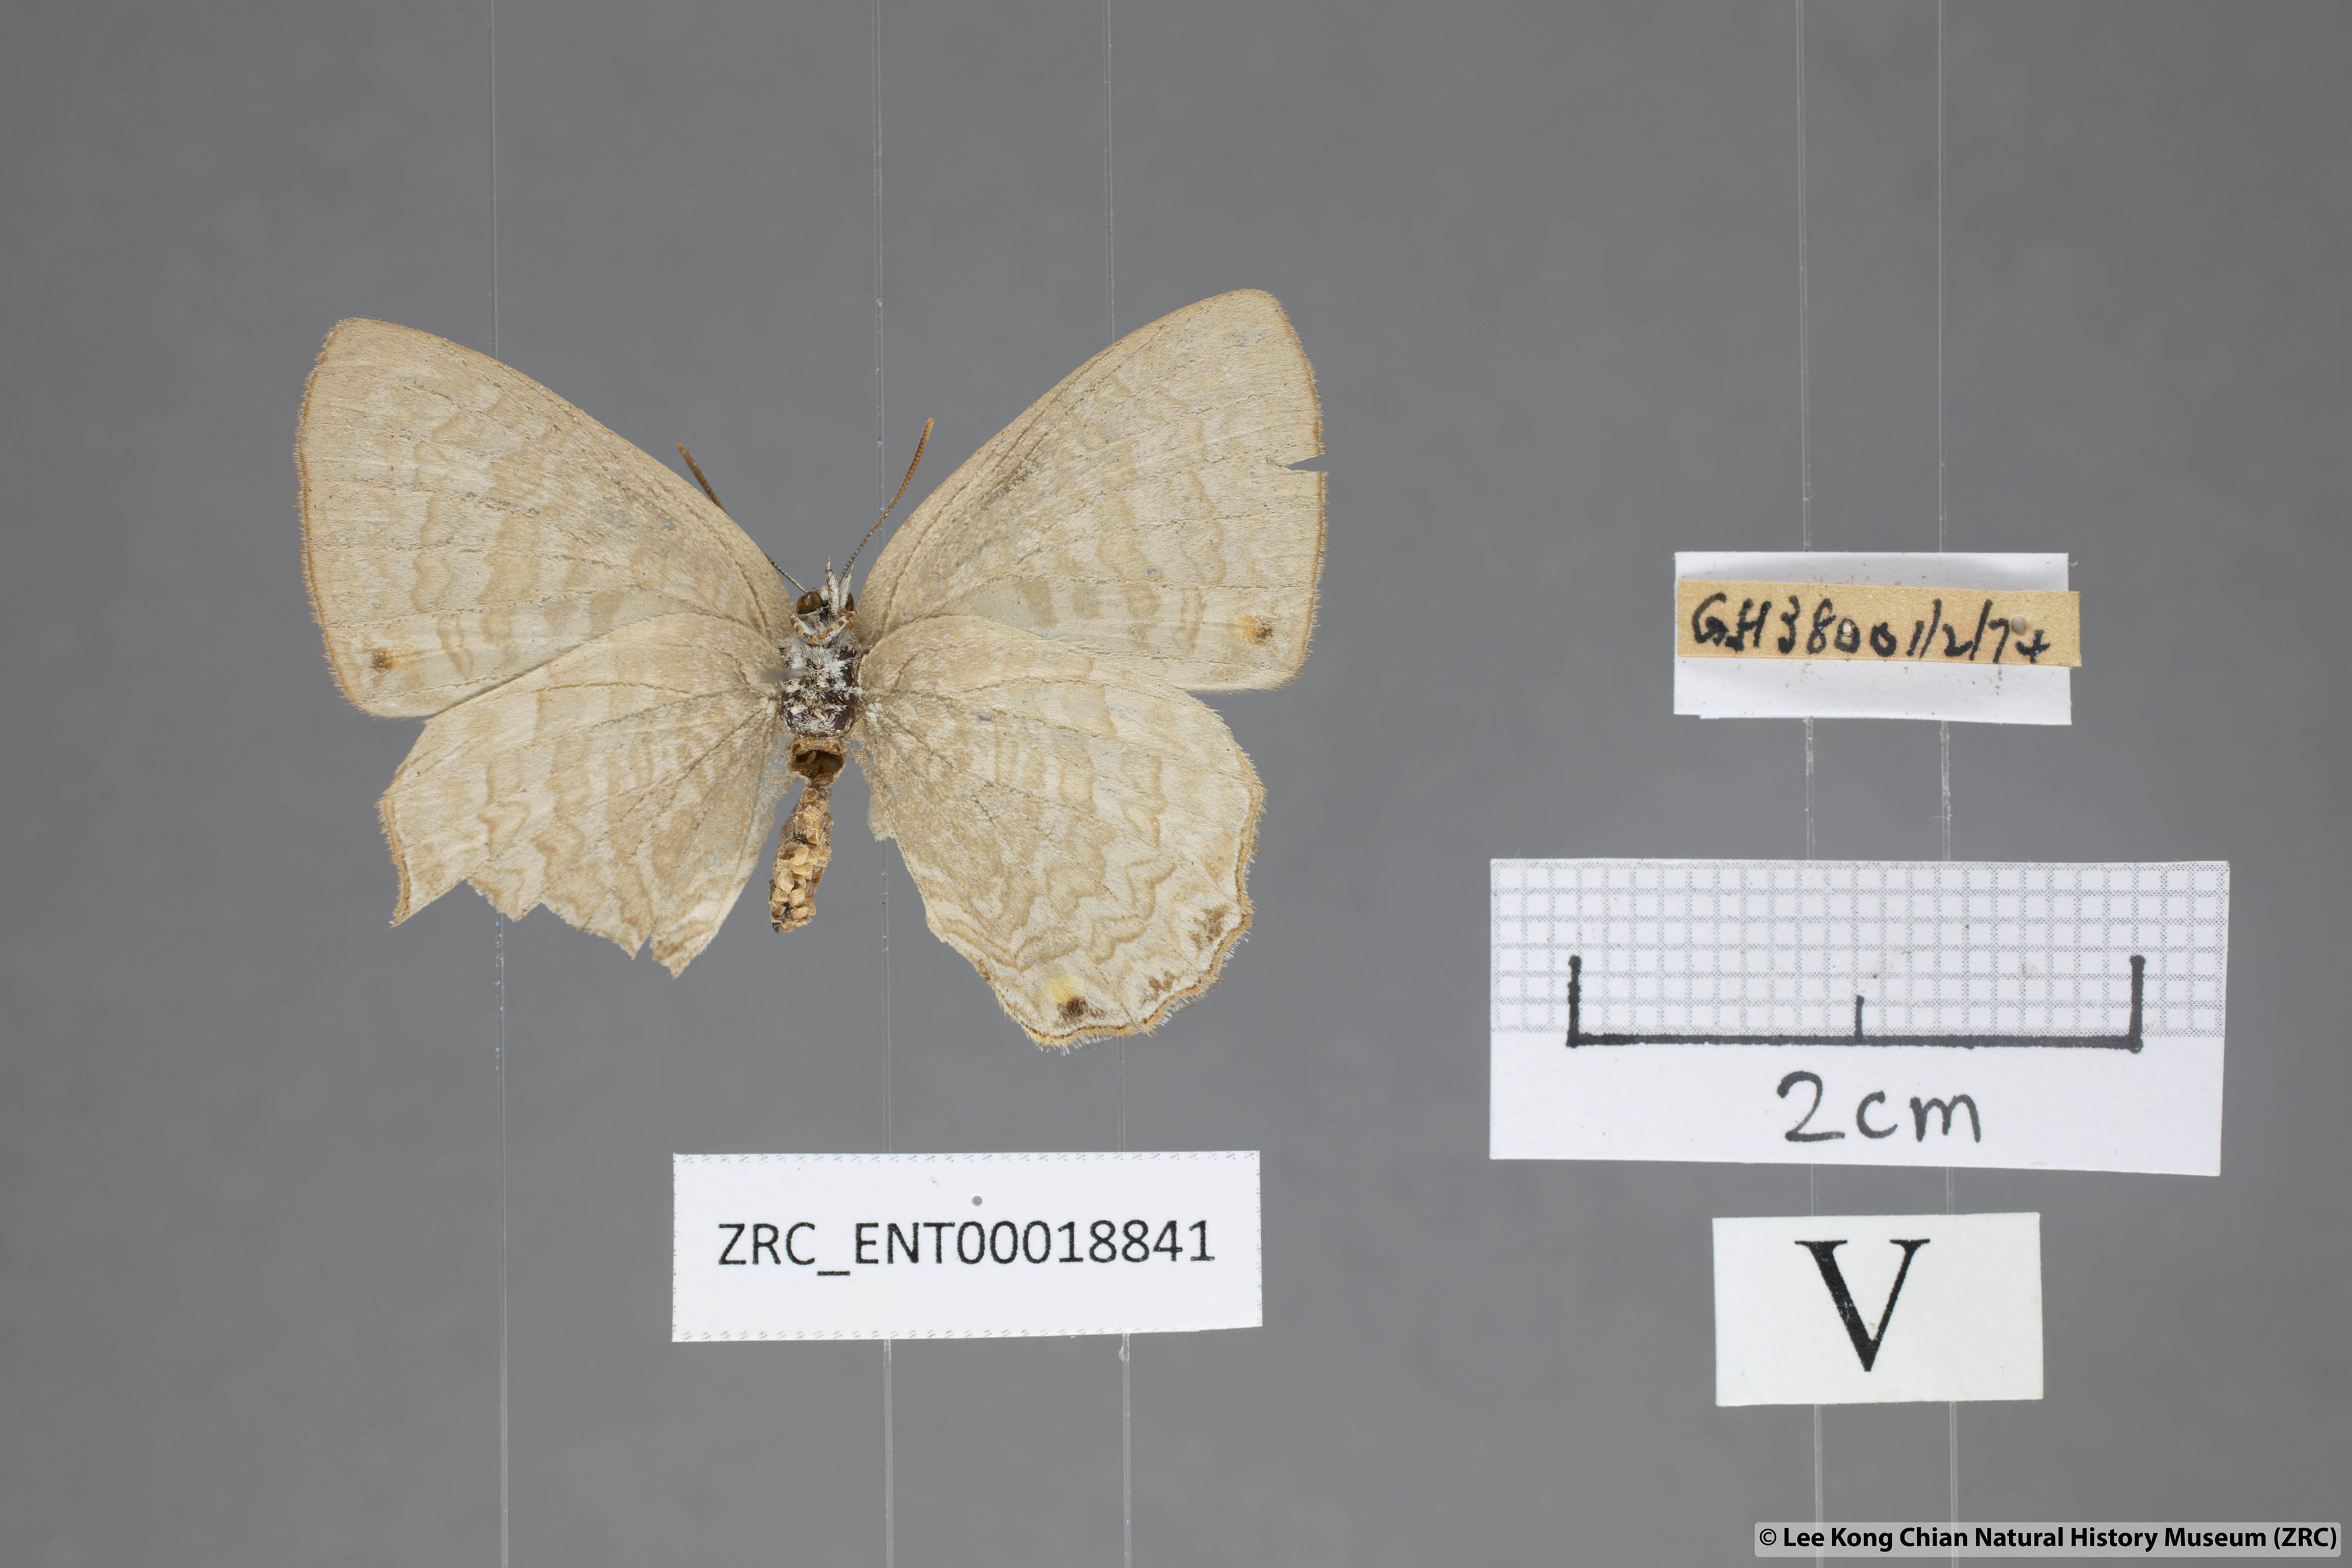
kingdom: Animalia
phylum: Arthropoda
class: Insecta
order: Lepidoptera
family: Lycaenidae
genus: Poritia
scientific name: Poritia promula
